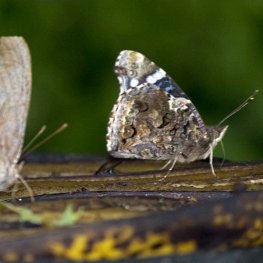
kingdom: Animalia
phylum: Arthropoda
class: Insecta
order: Lepidoptera
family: Nymphalidae
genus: Vanessa
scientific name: Vanessa atalanta
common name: Red Admiral
